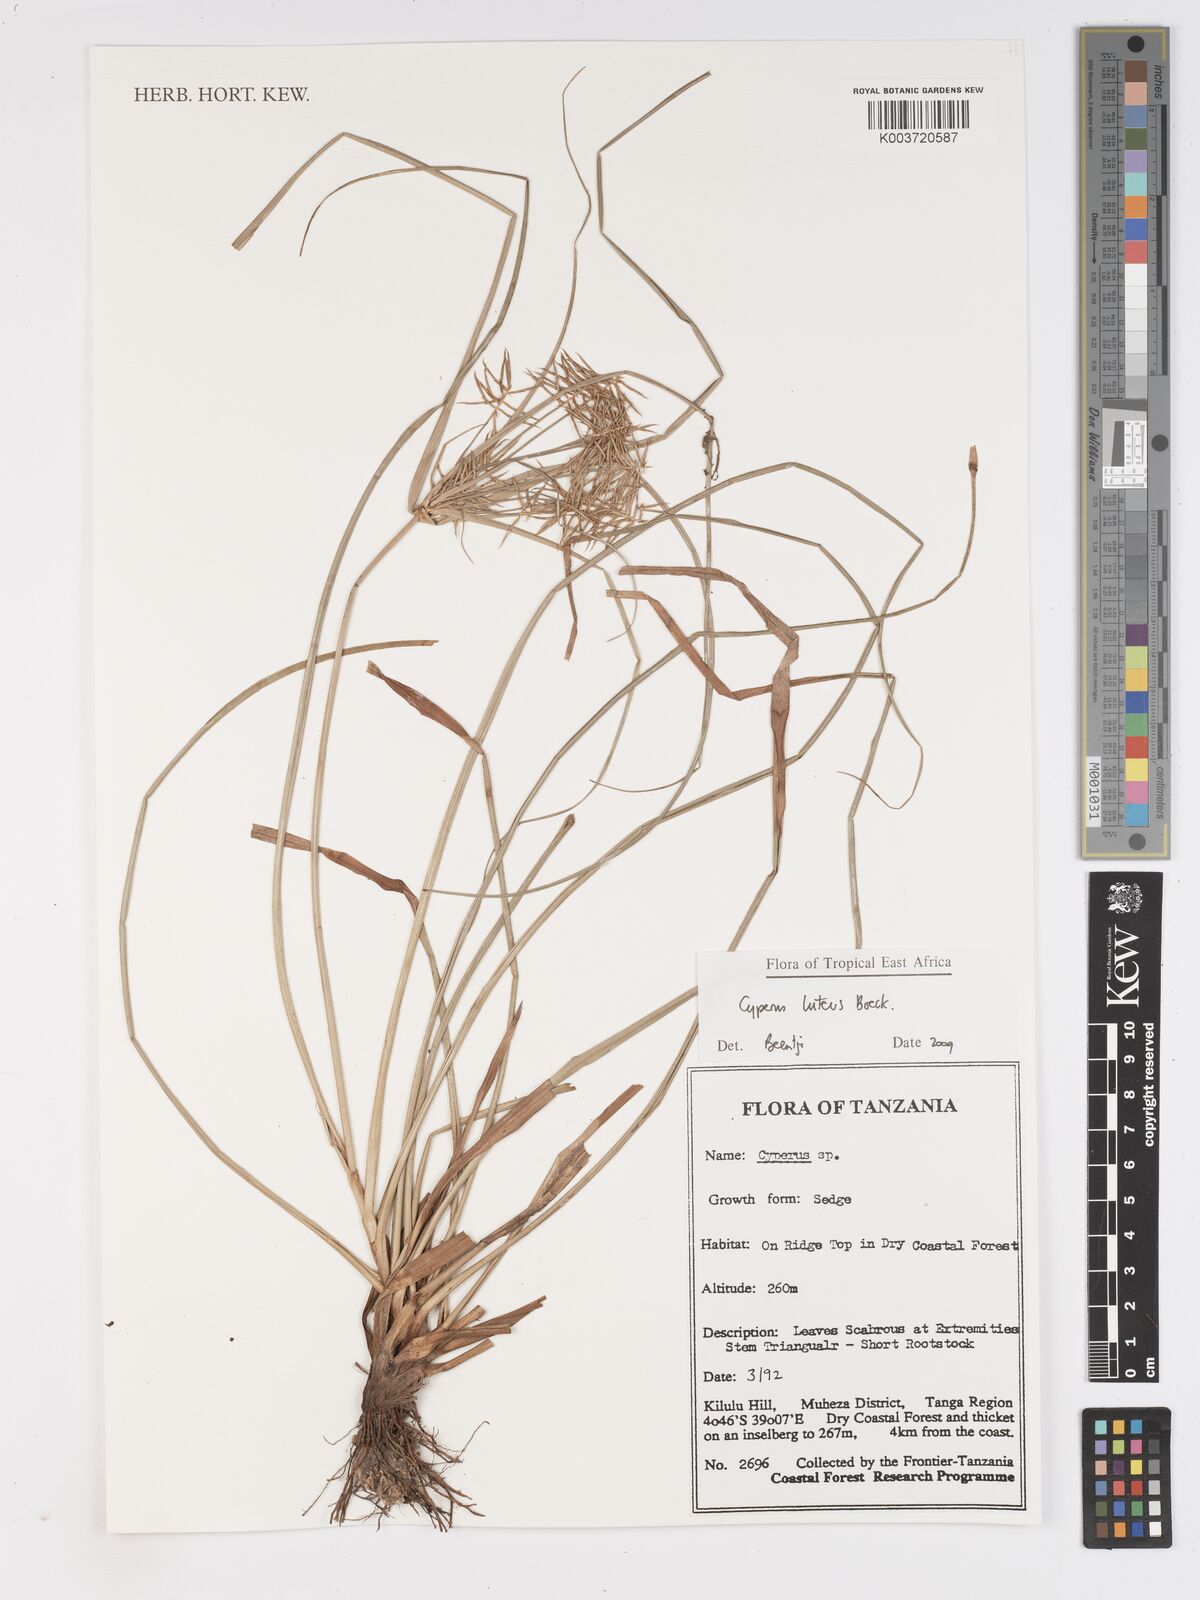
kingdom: Plantae
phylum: Tracheophyta
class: Liliopsida
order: Poales
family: Cyperaceae
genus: Cyperus
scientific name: Cyperus luteus
